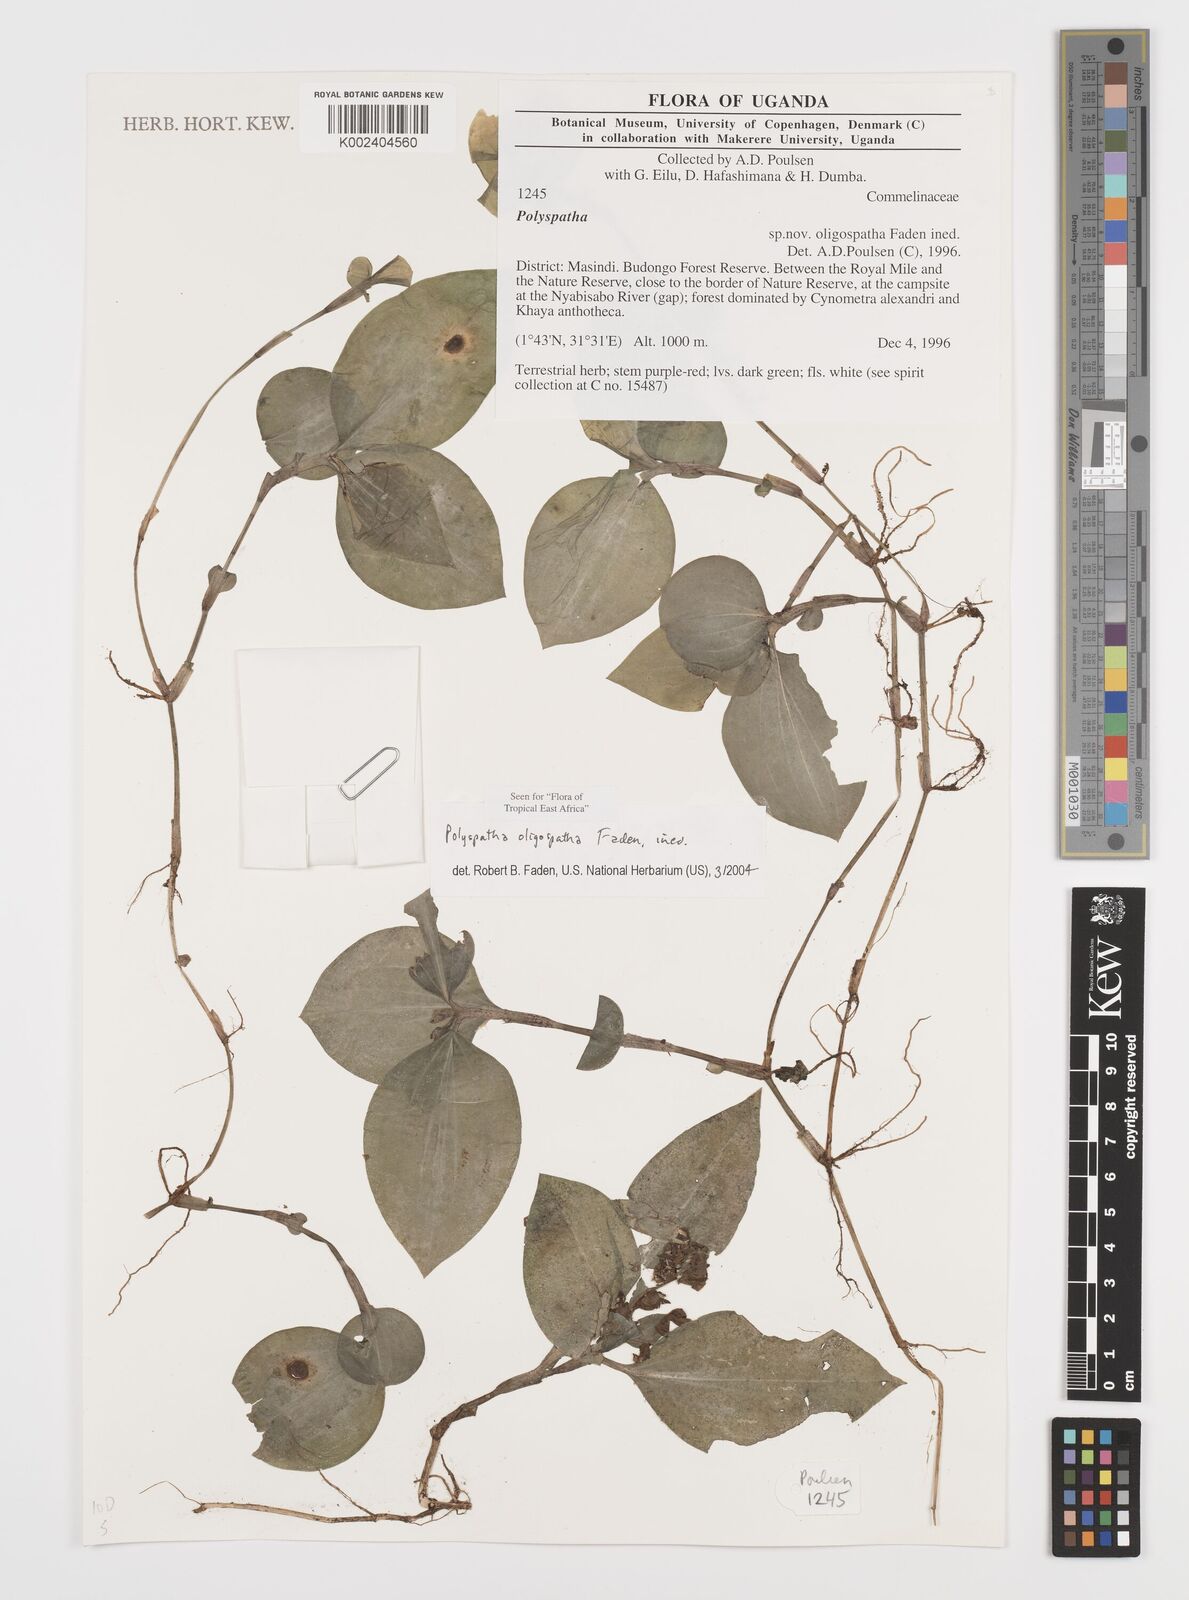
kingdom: Plantae
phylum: Tracheophyta
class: Liliopsida
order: Commelinales
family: Commelinaceae
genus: Polyspatha
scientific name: Polyspatha oligospatha
